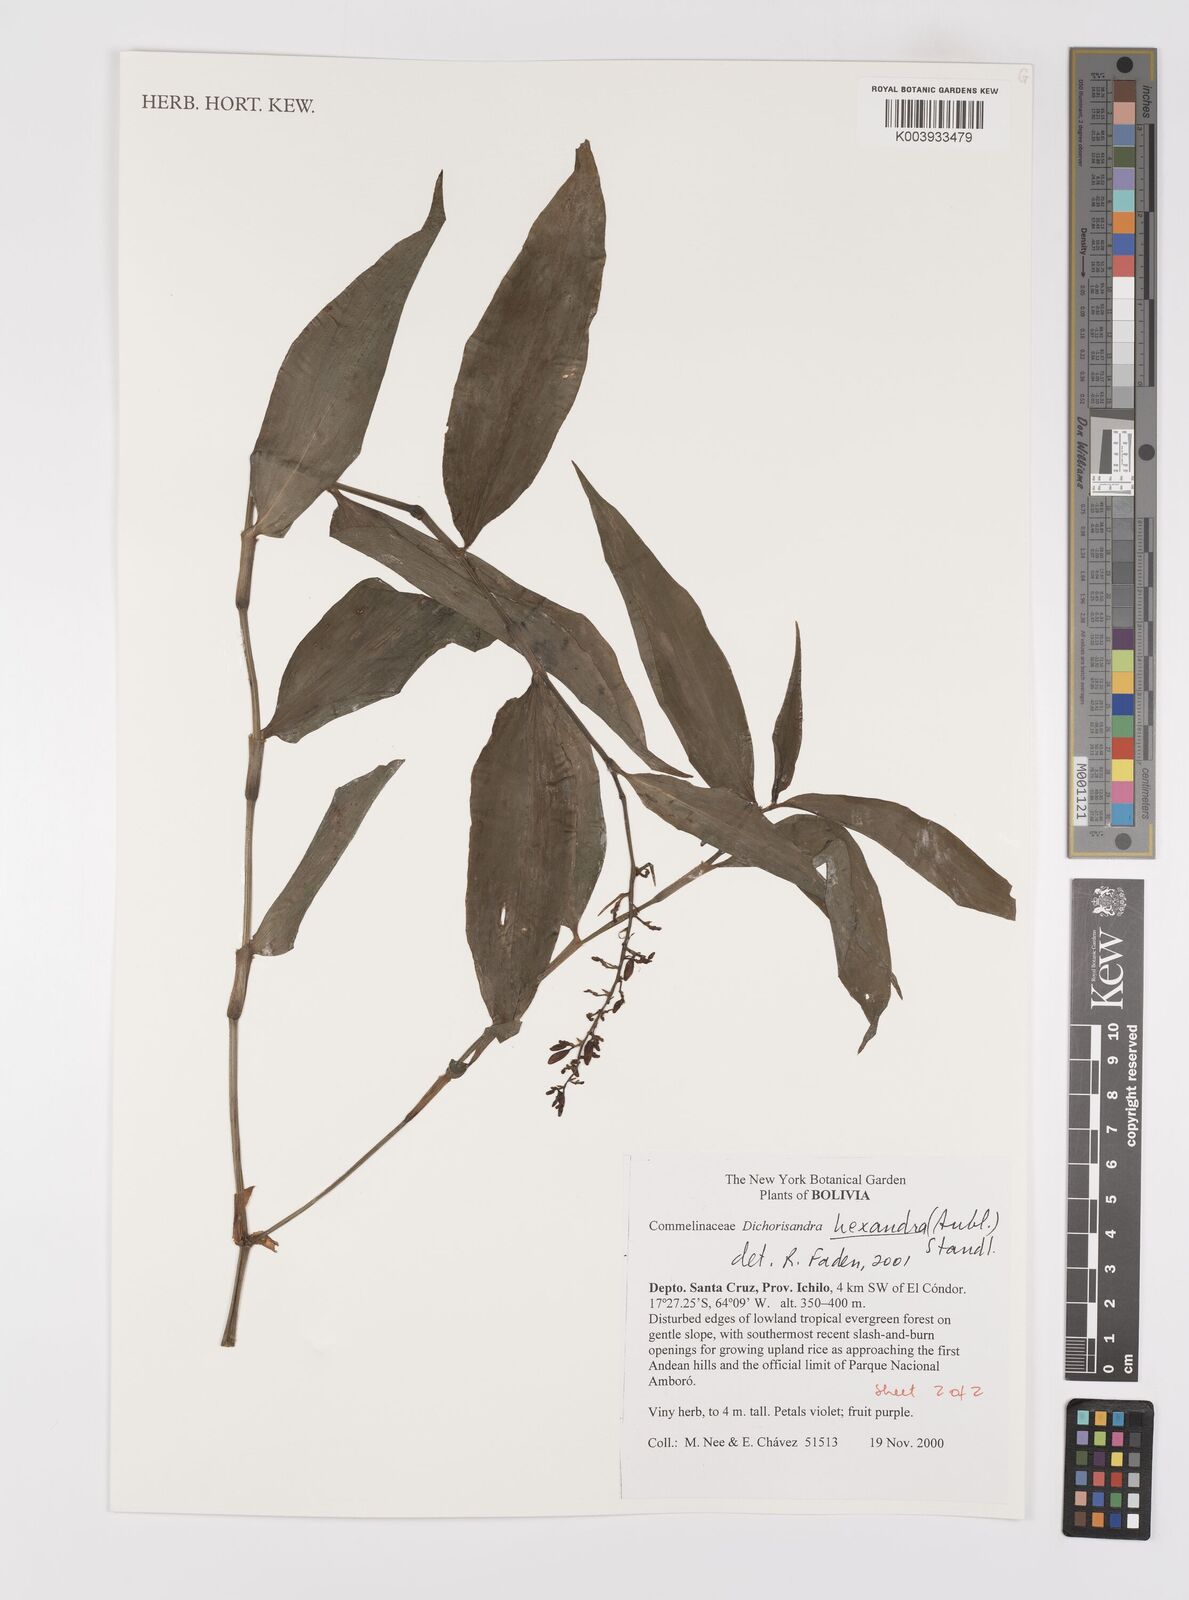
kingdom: Plantae
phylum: Tracheophyta
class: Liliopsida
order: Commelinales
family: Commelinaceae
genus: Dichorisandra
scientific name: Dichorisandra hexandra
